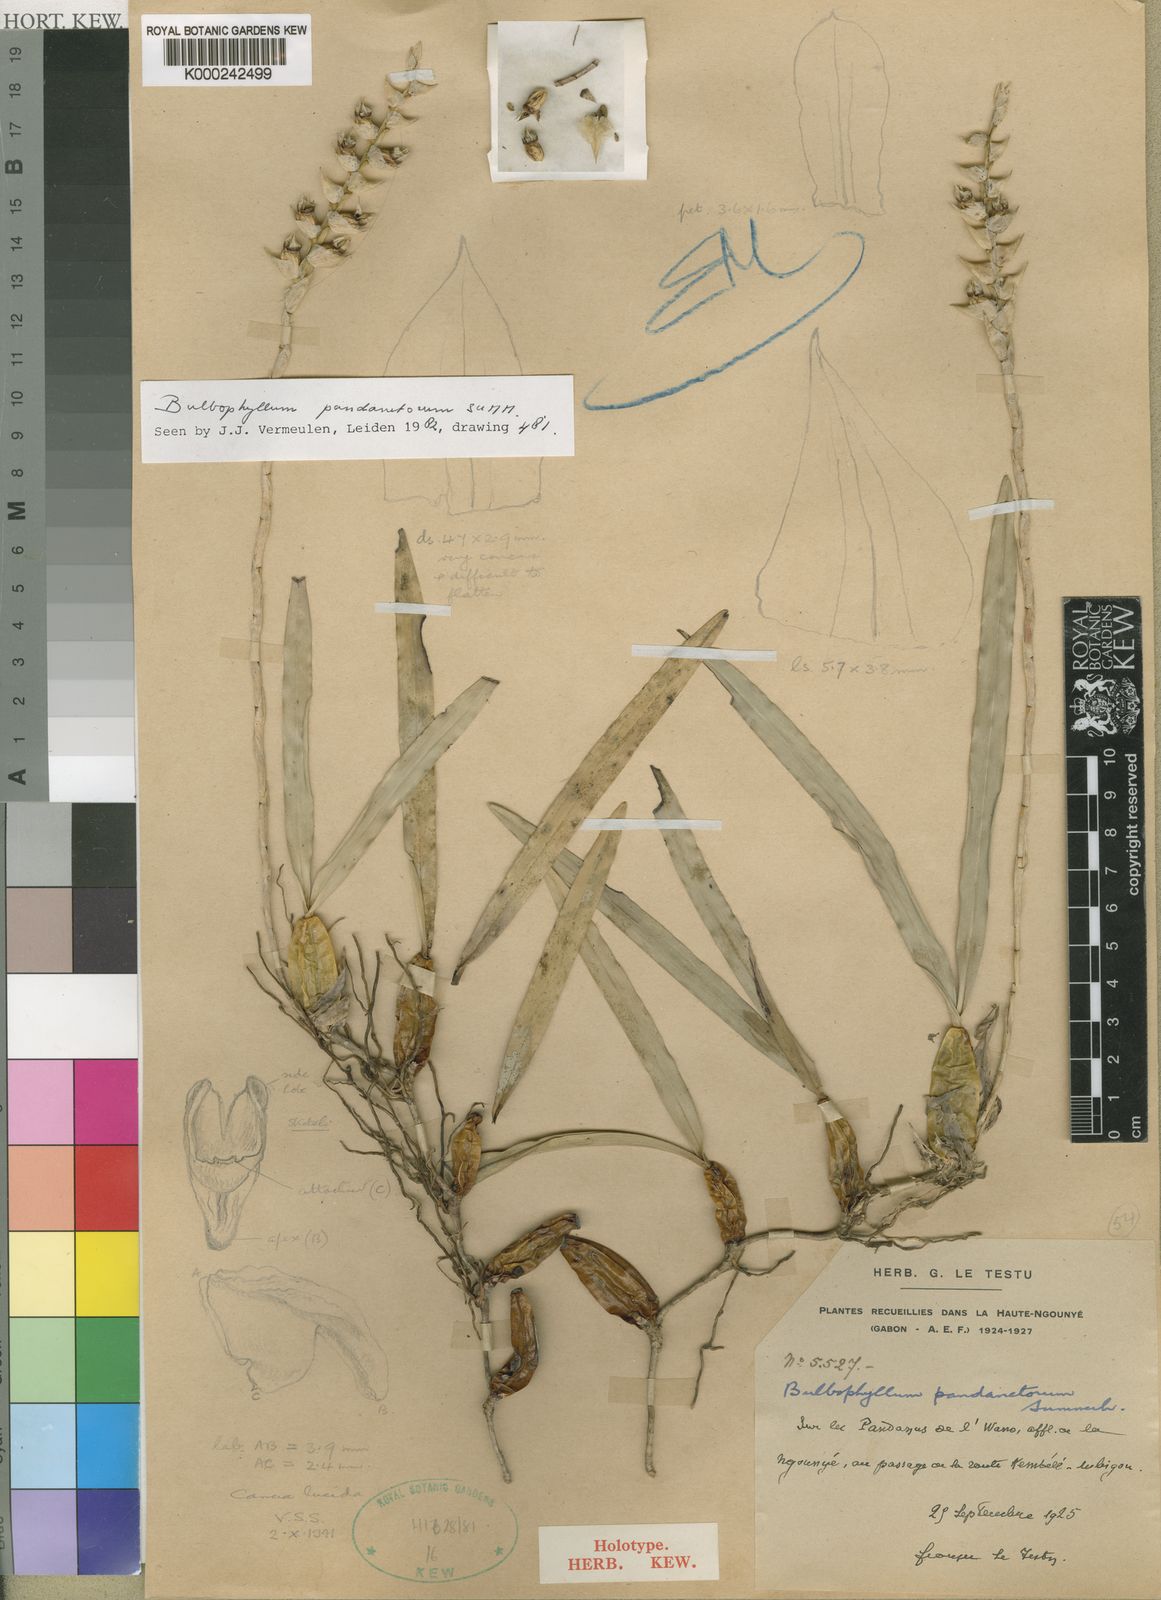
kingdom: Plantae
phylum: Tracheophyta
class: Liliopsida
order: Asparagales
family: Orchidaceae
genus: Bulbophyllum
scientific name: Bulbophyllum pandanetorum
